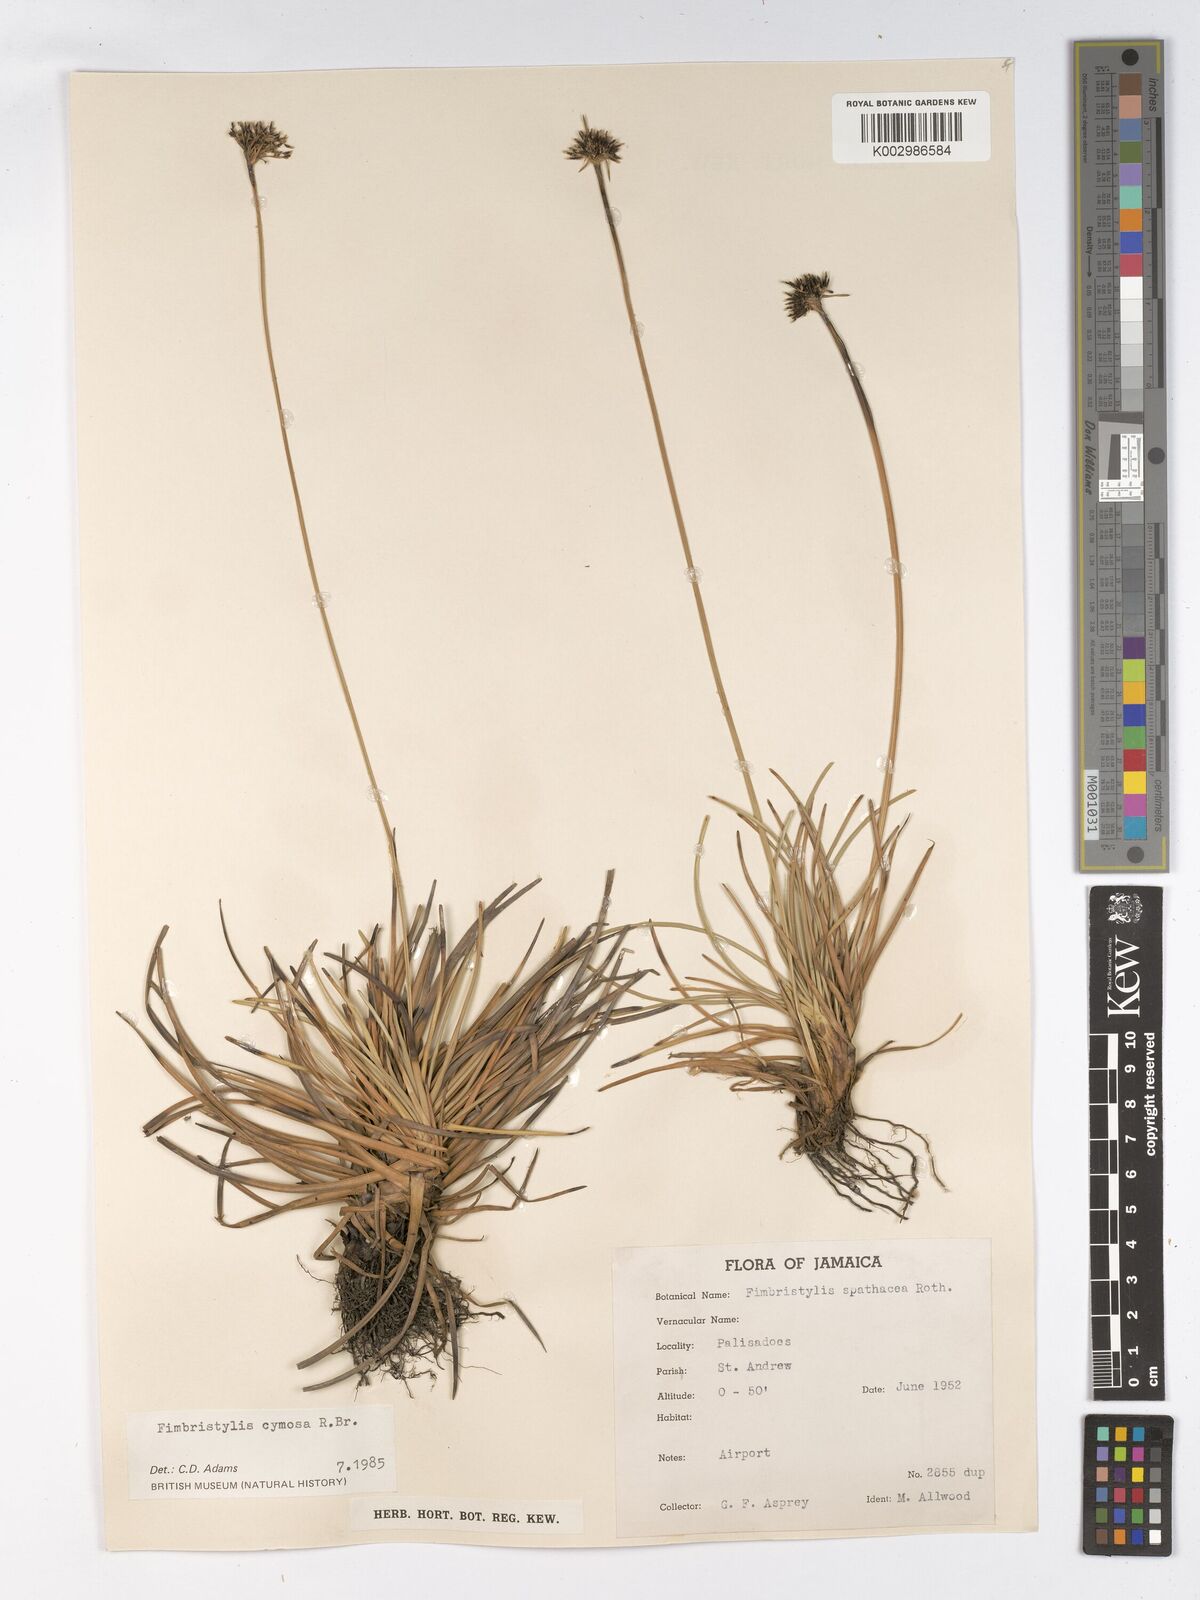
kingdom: Plantae
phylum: Tracheophyta
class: Liliopsida
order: Poales
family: Cyperaceae
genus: Fimbristylis
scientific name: Fimbristylis cymosa
